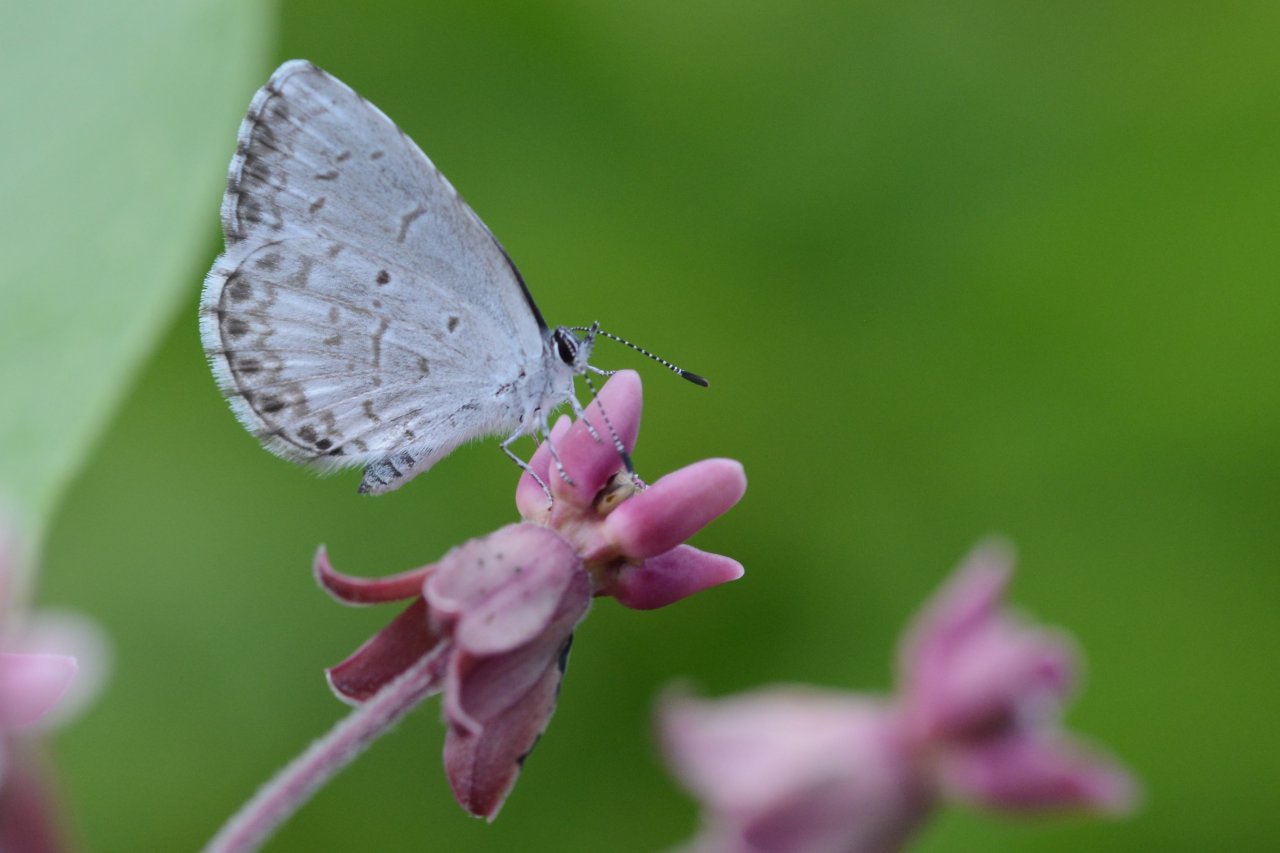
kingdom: Animalia
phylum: Arthropoda
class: Insecta
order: Lepidoptera
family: Lycaenidae
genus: Celastrina
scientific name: Celastrina lucia
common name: Northern Spring Azure
